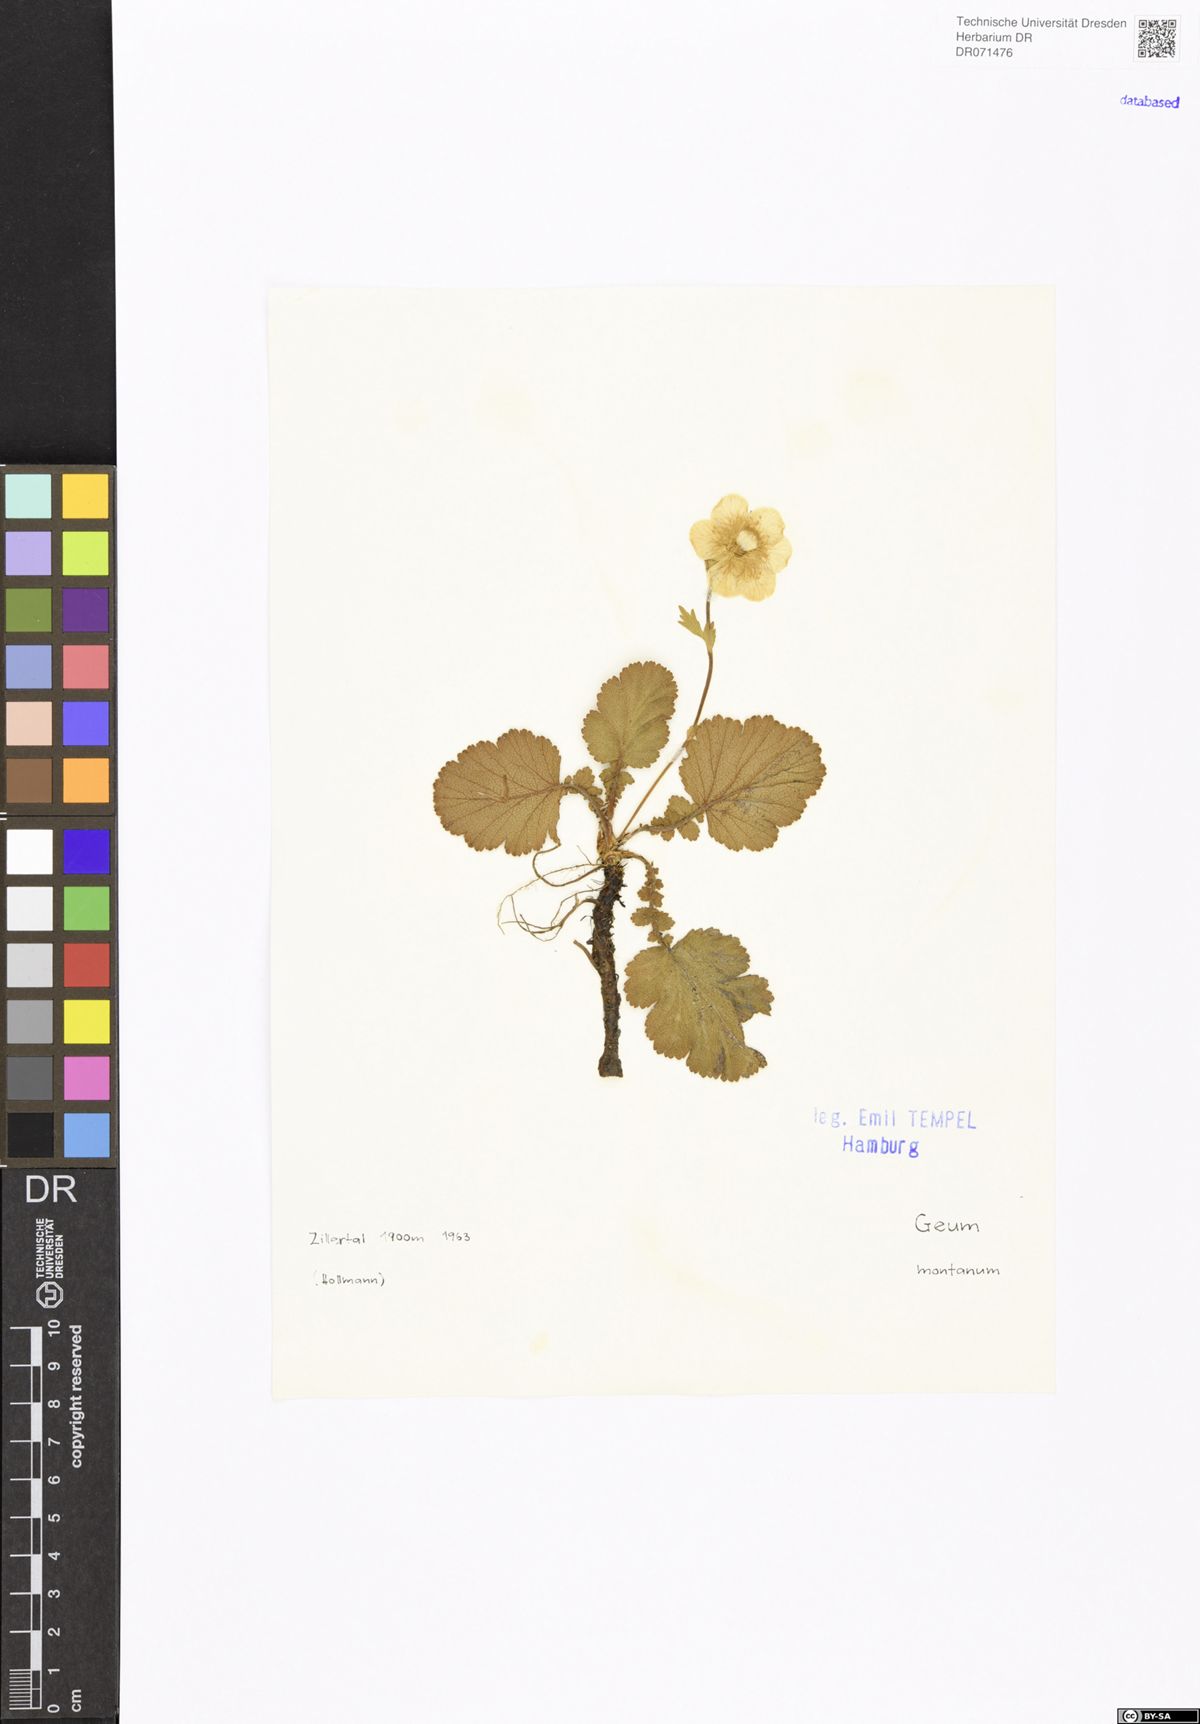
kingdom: Plantae
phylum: Tracheophyta
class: Magnoliopsida
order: Rosales
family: Rosaceae
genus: Geum
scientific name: Geum montanum
